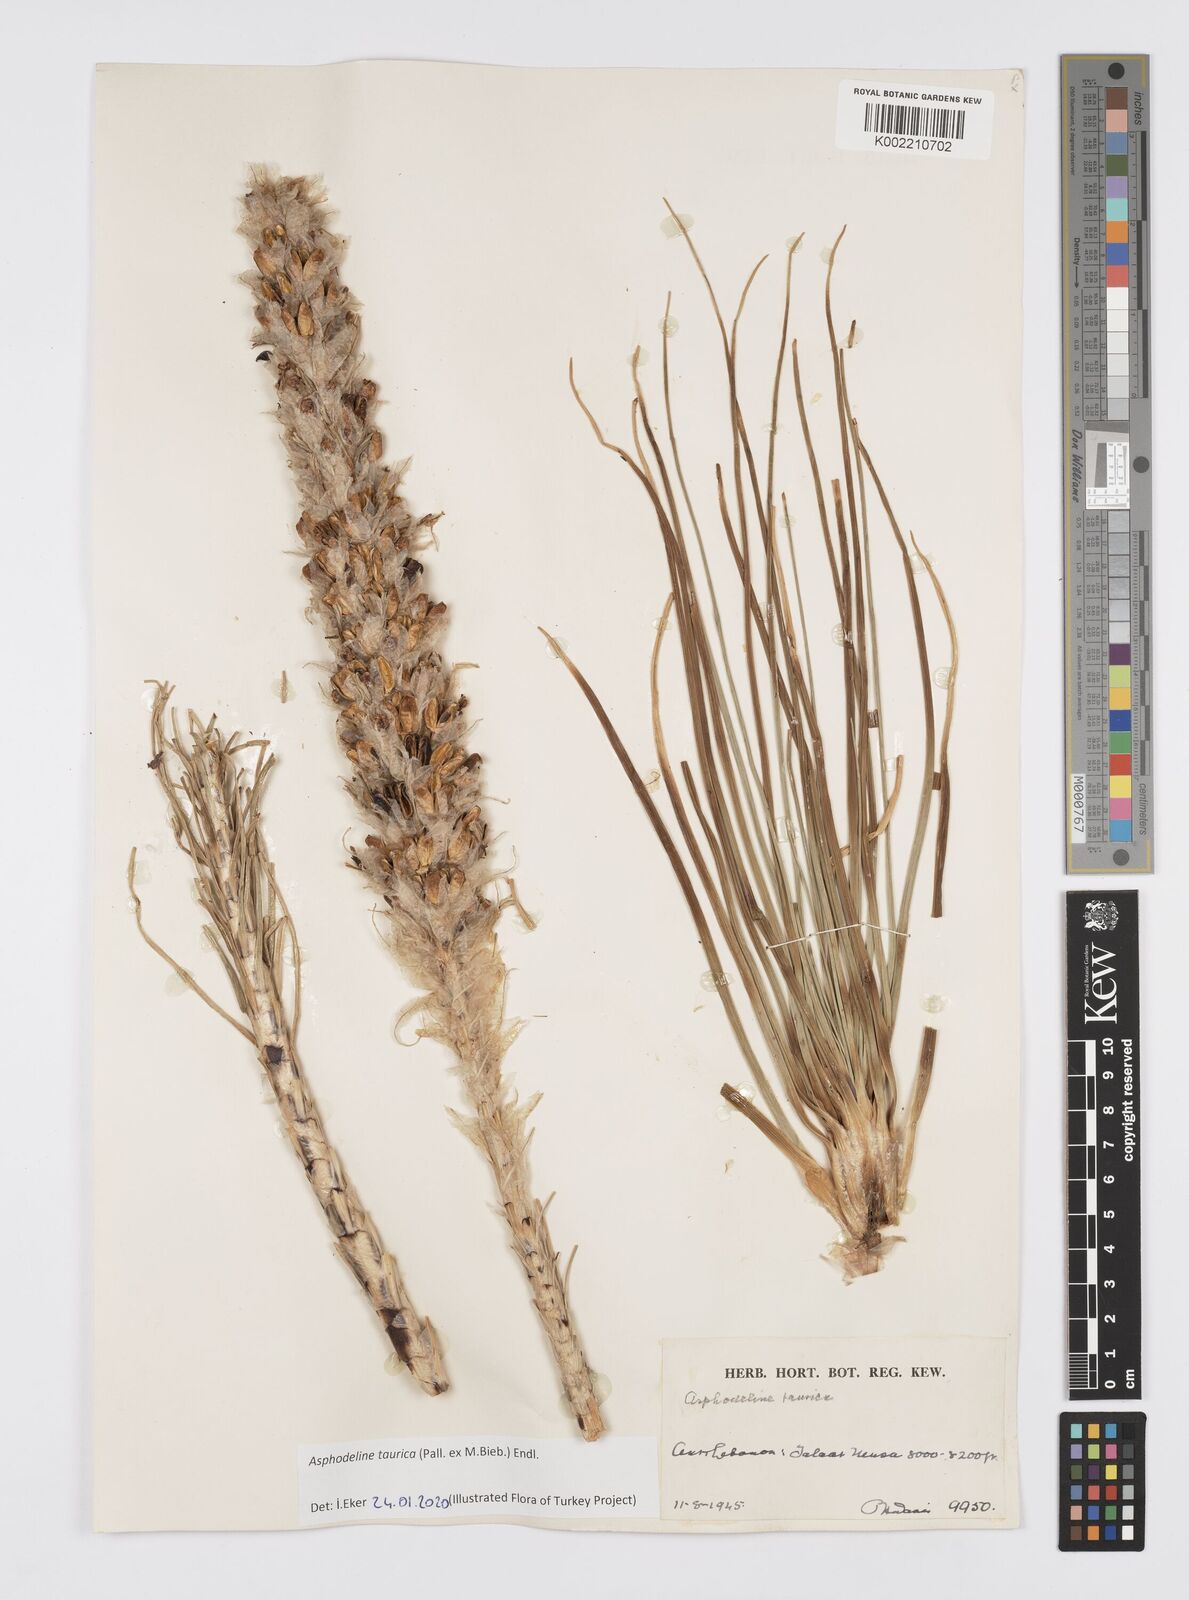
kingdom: Plantae
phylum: Tracheophyta
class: Liliopsida
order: Asparagales
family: Asphodelaceae
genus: Asphodeline
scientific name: Asphodeline taurica
